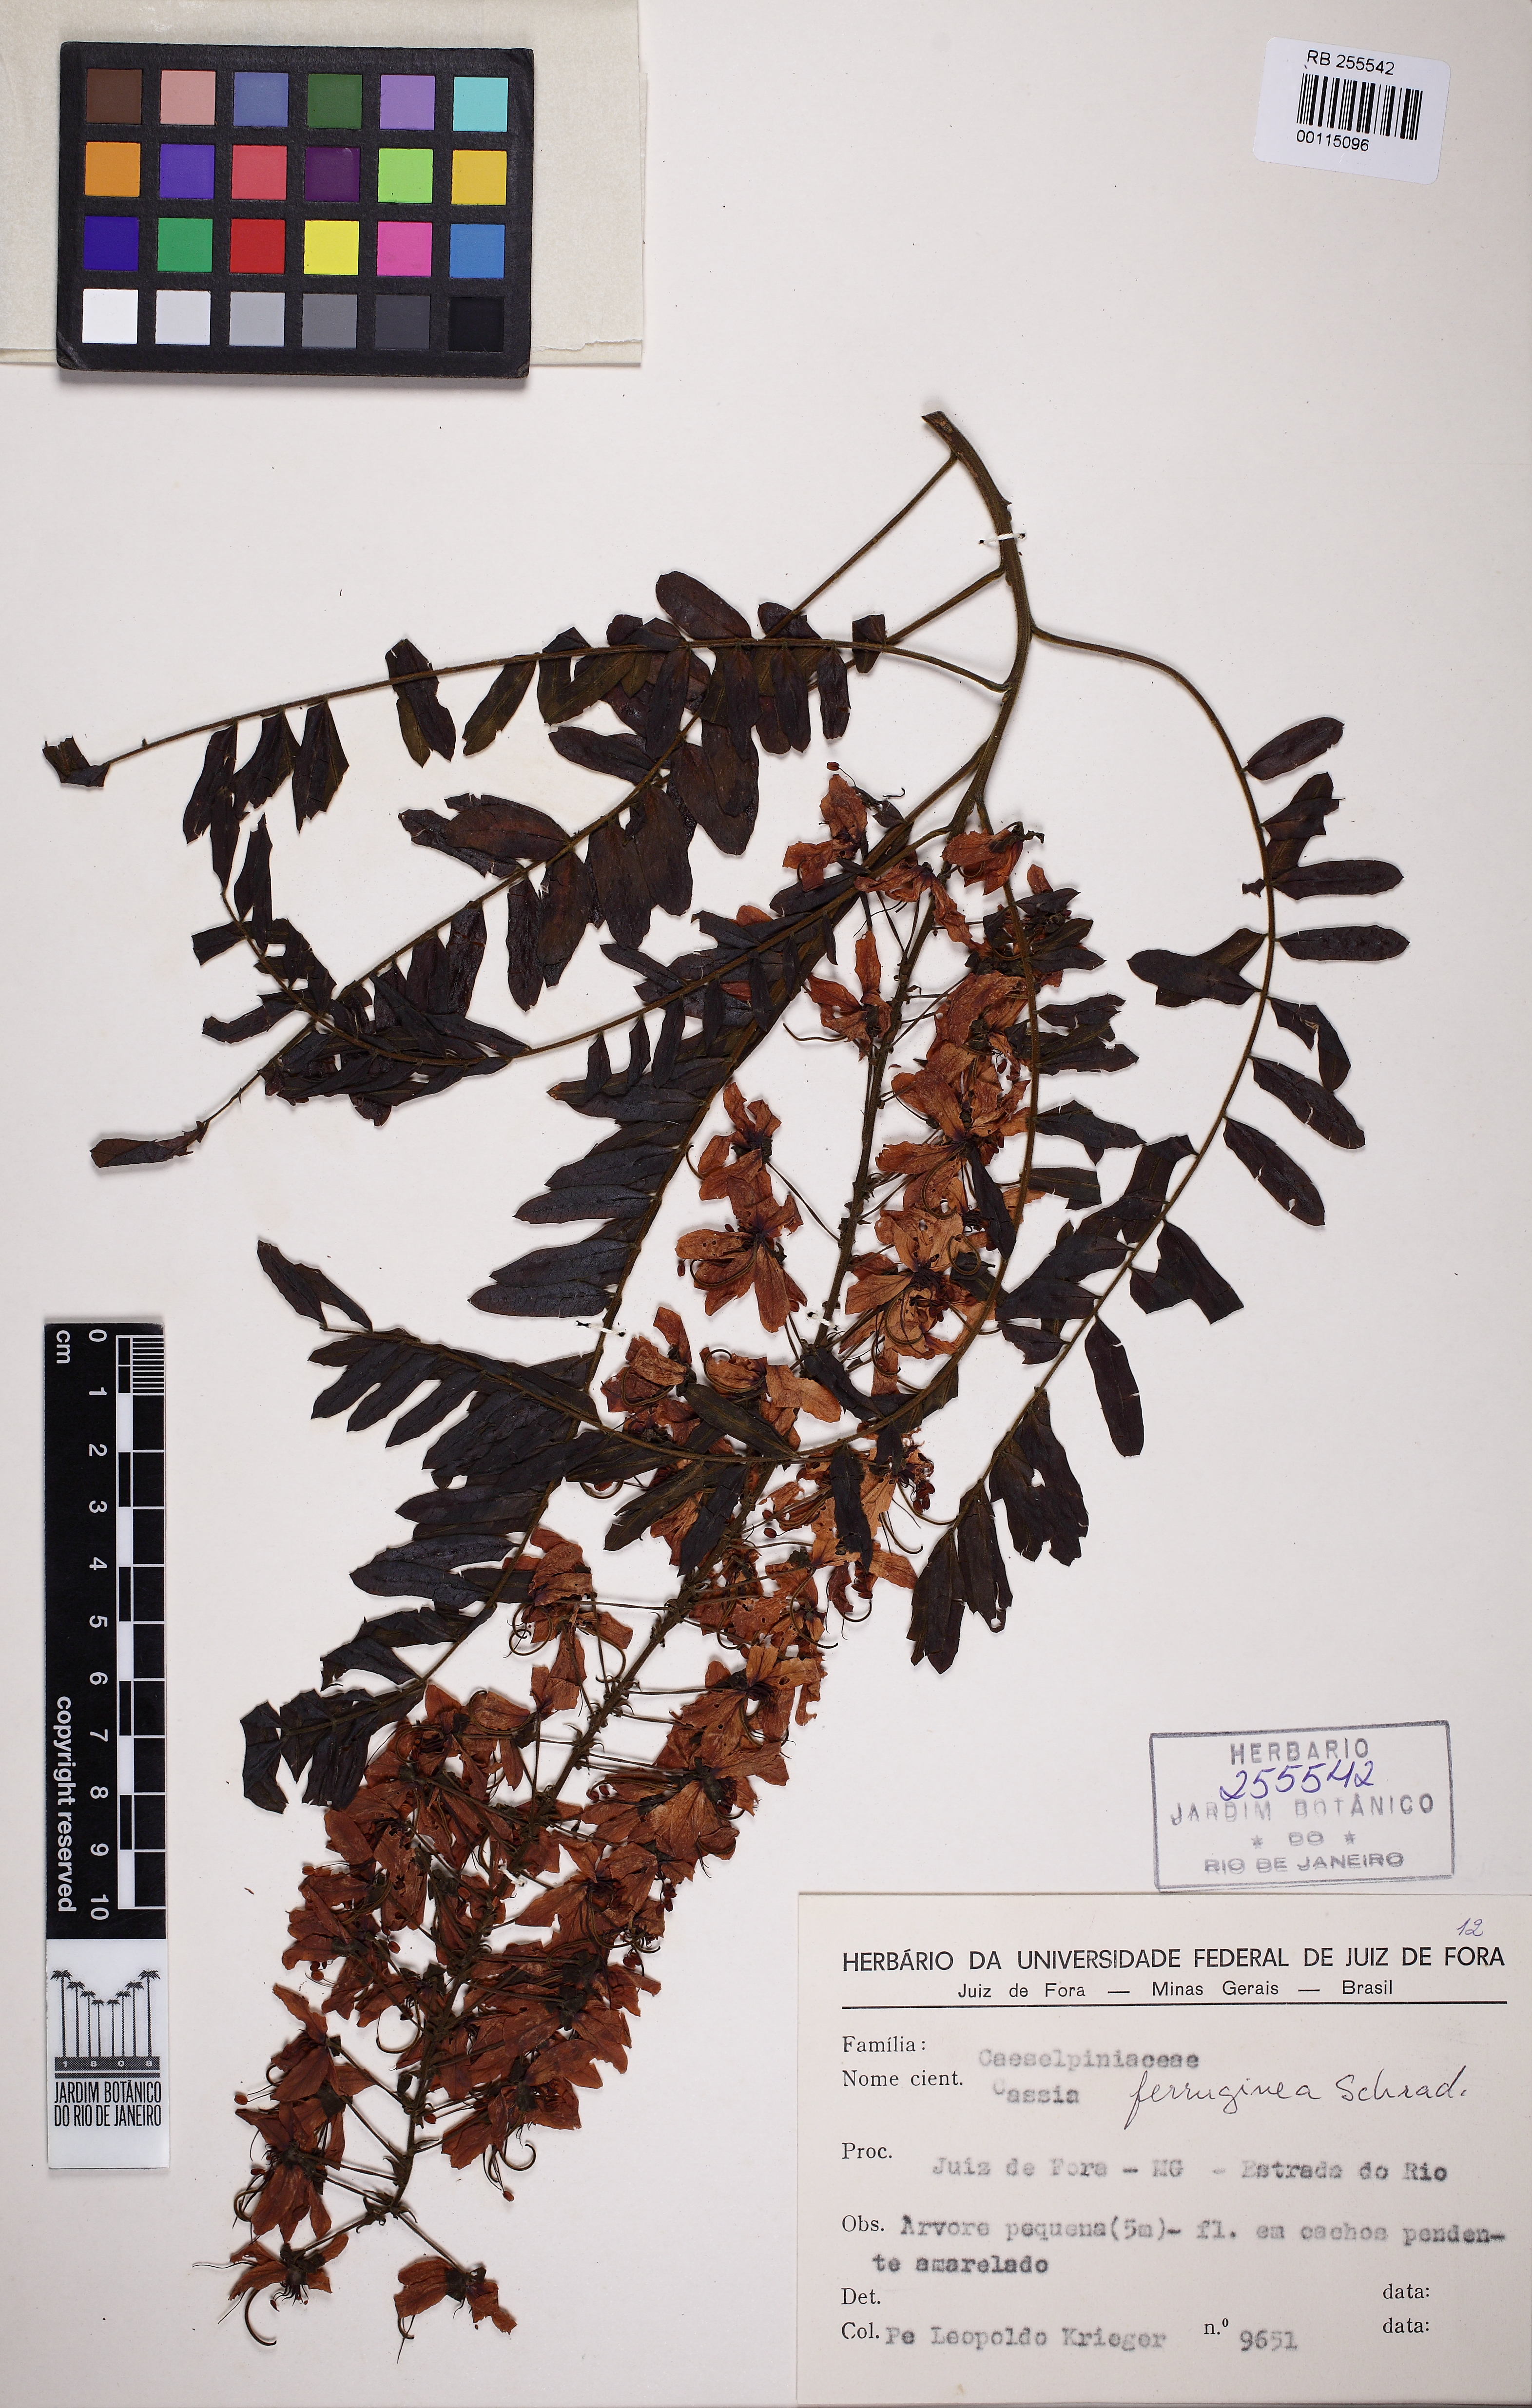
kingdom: Plantae
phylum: Tracheophyta
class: Magnoliopsida
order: Fabales
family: Fabaceae
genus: Cassia
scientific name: Cassia ferruginea
